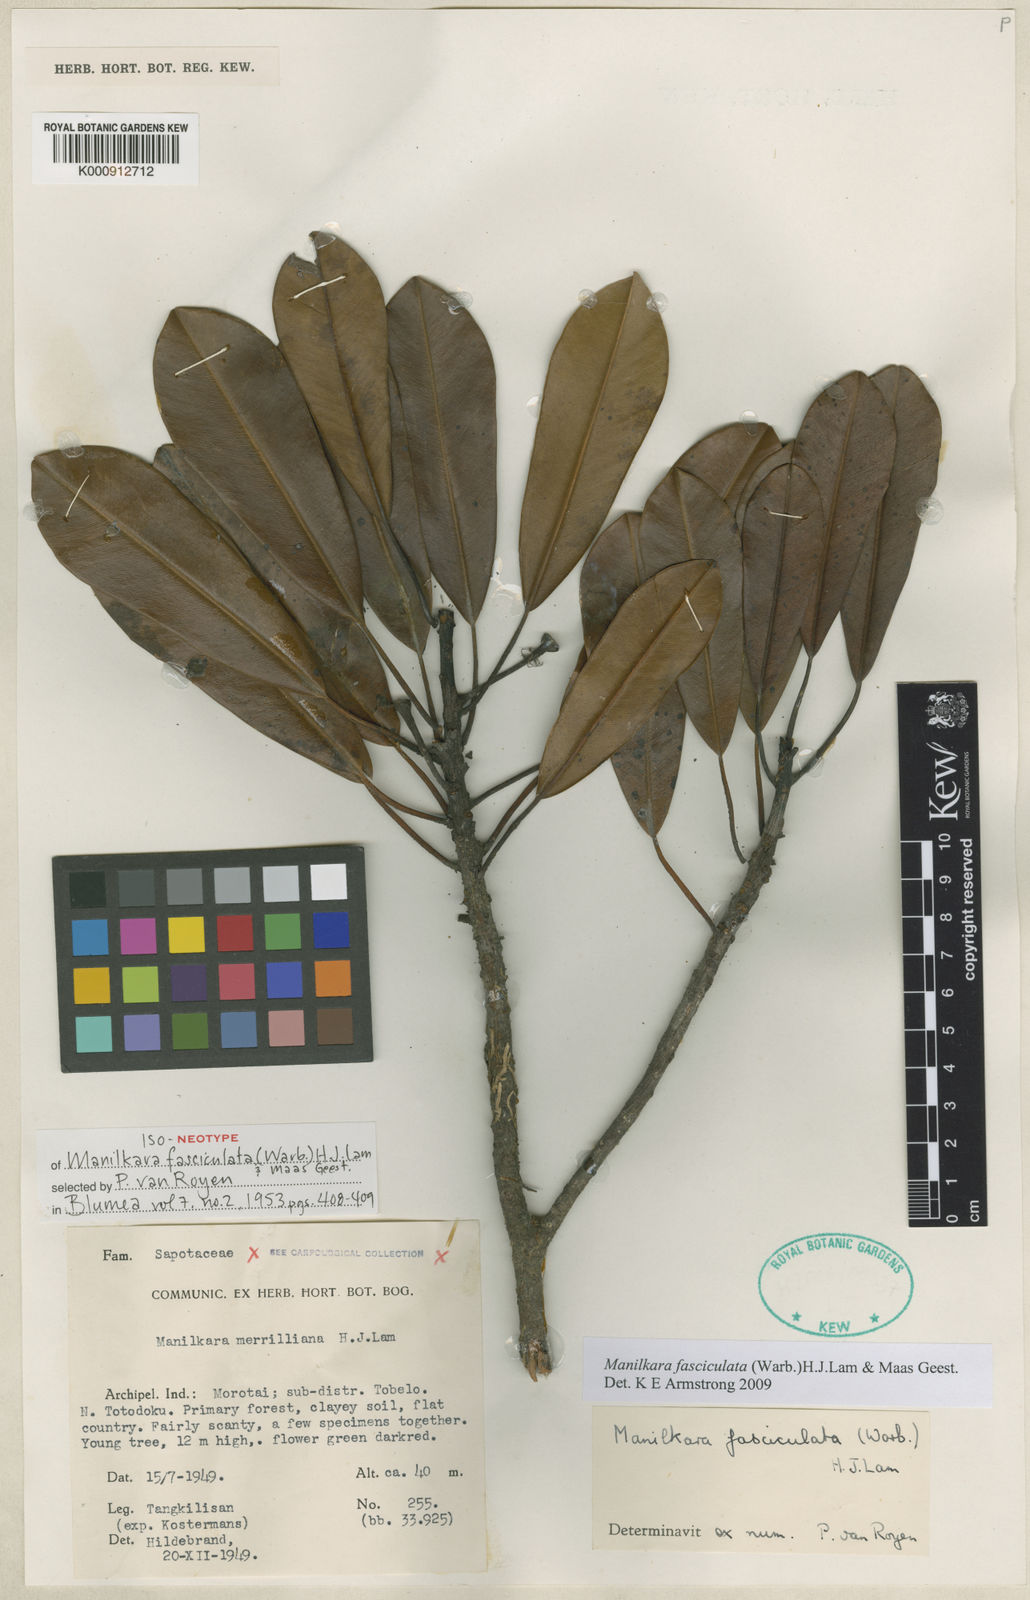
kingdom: Plantae
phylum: Tracheophyta
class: Magnoliopsida
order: Ericales
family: Sapotaceae
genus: Manilkara
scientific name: Manilkara fasciculata
